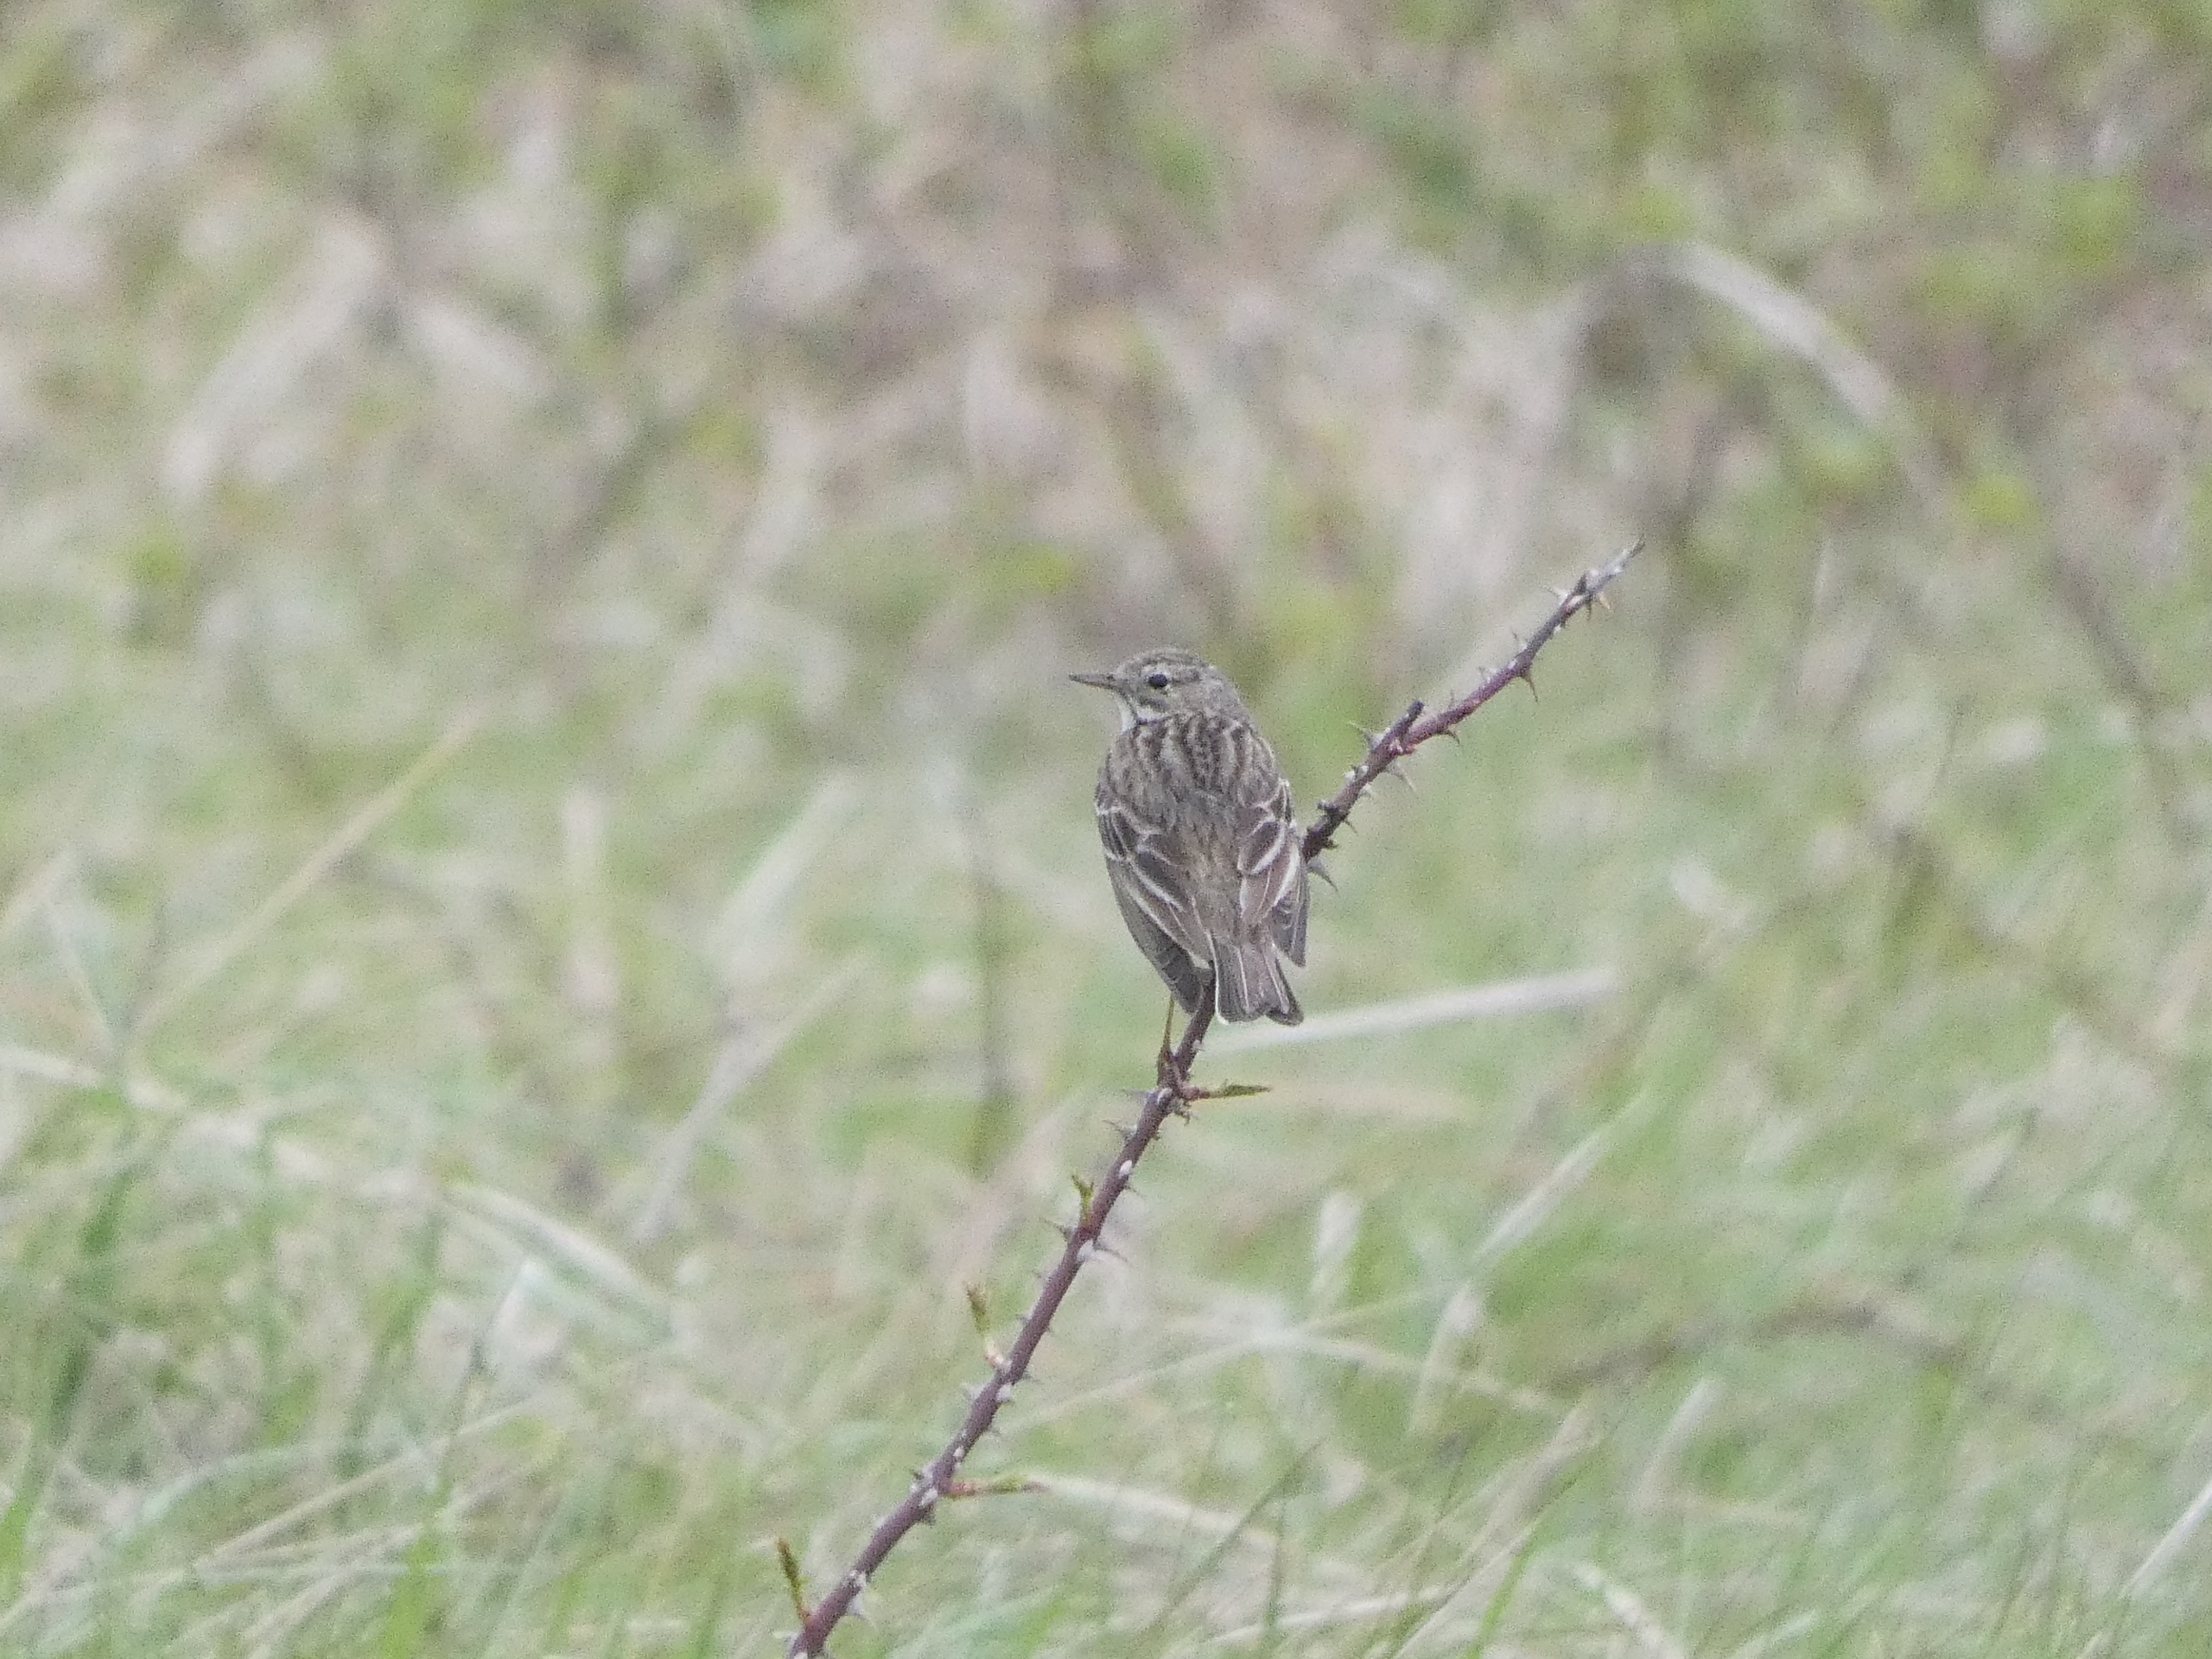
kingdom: Animalia
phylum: Chordata
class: Aves
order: Passeriformes
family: Motacillidae
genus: Anthus
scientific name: Anthus pratensis
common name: Engpiber
